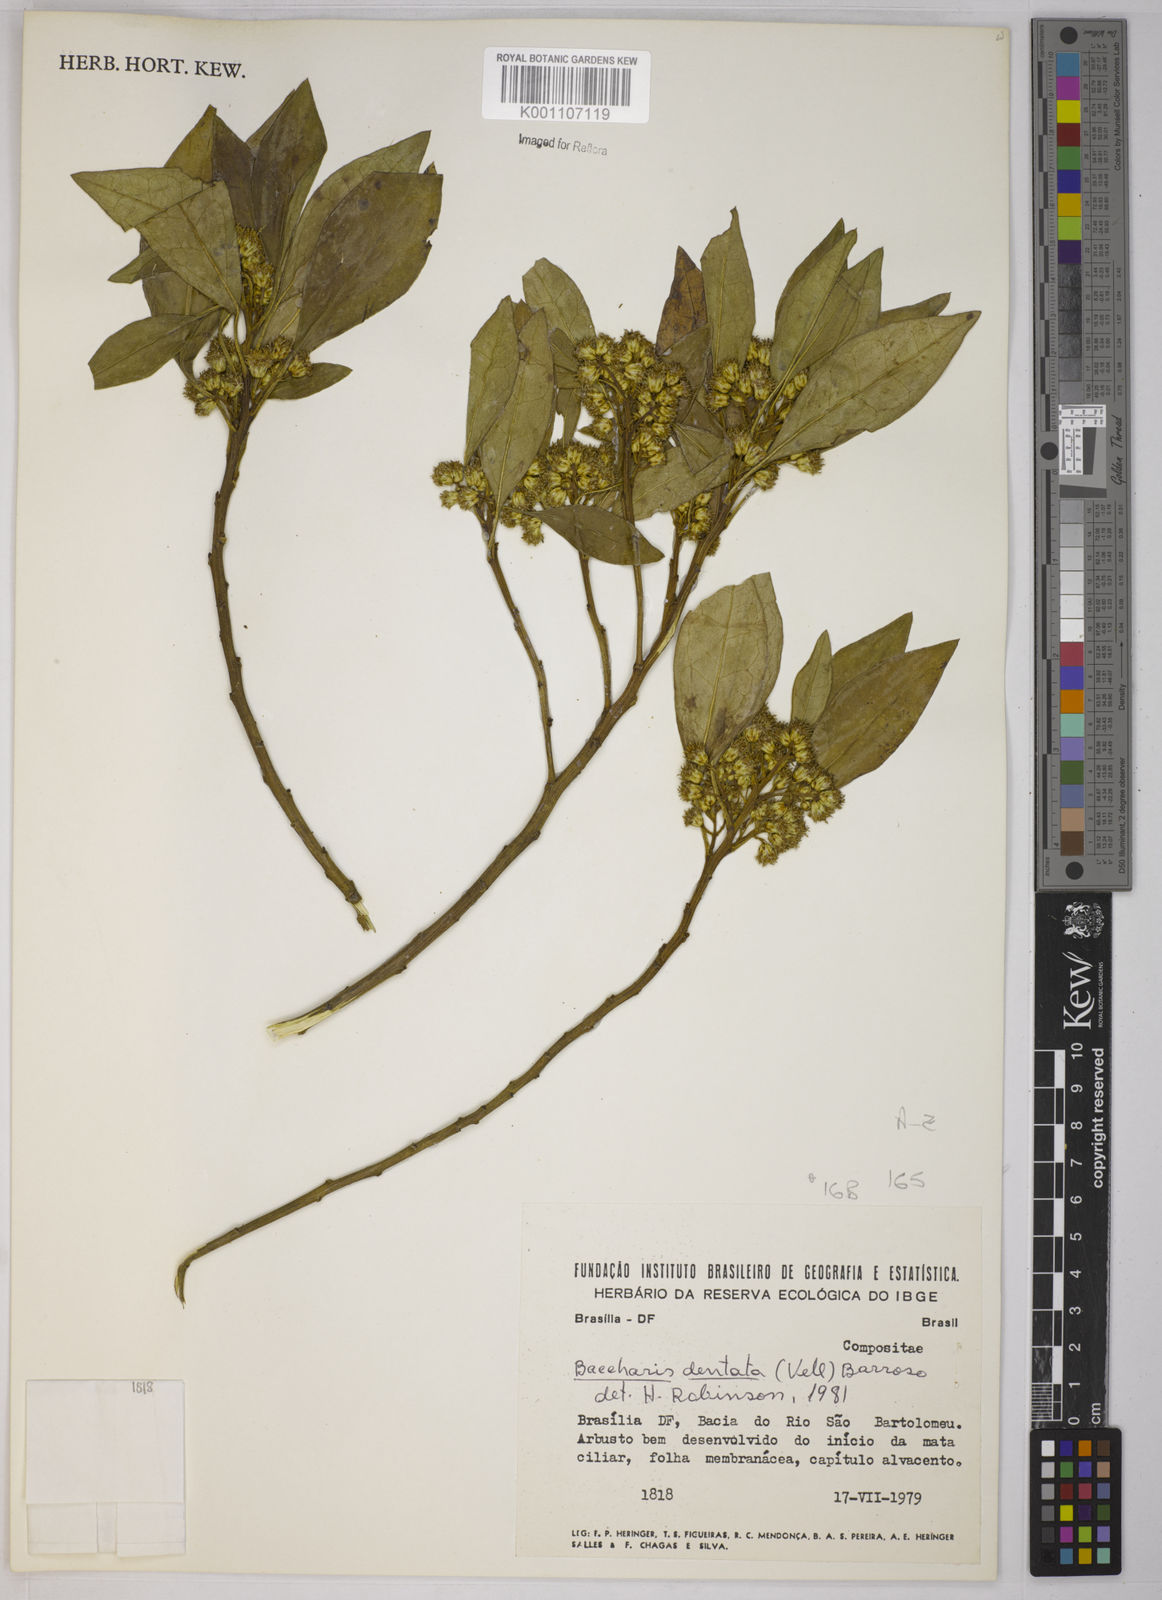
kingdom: Plantae
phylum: Tracheophyta
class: Magnoliopsida
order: Asterales
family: Asteraceae
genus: Baccharis
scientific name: Baccharis dentata
